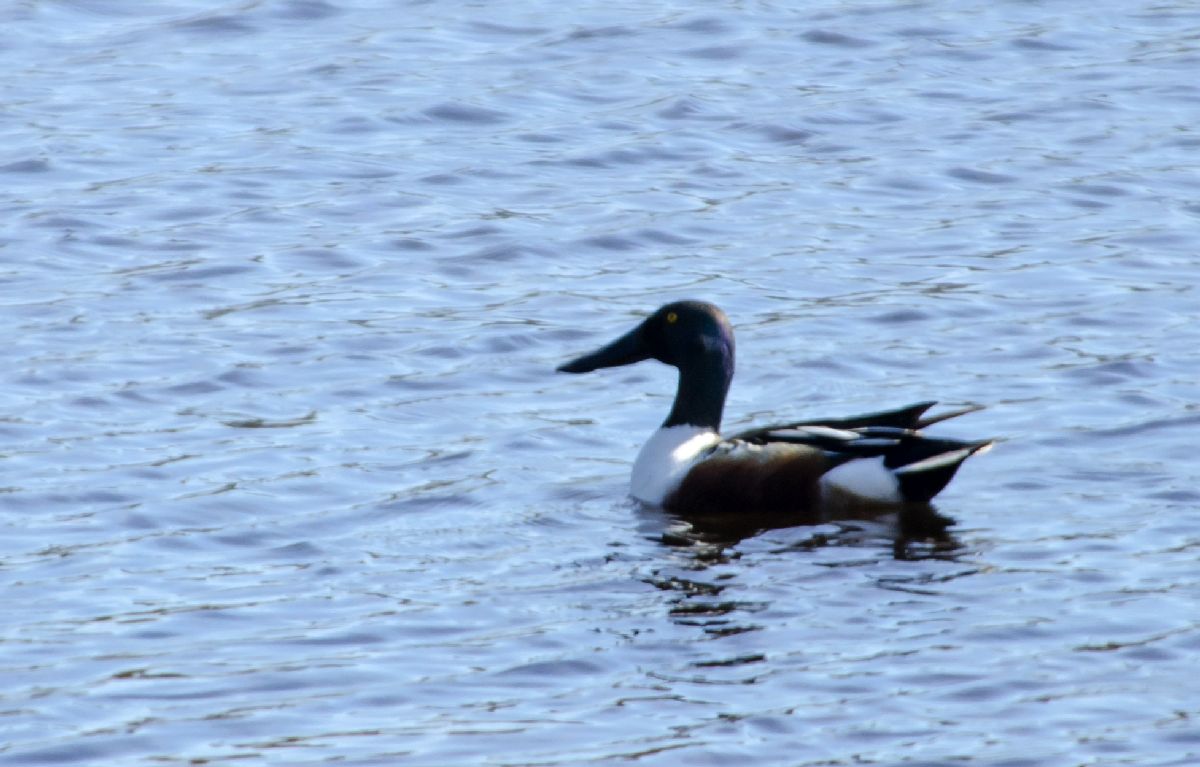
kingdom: Animalia
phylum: Chordata
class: Aves
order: Anseriformes
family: Anatidae
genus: Spatula
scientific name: Spatula clypeata
